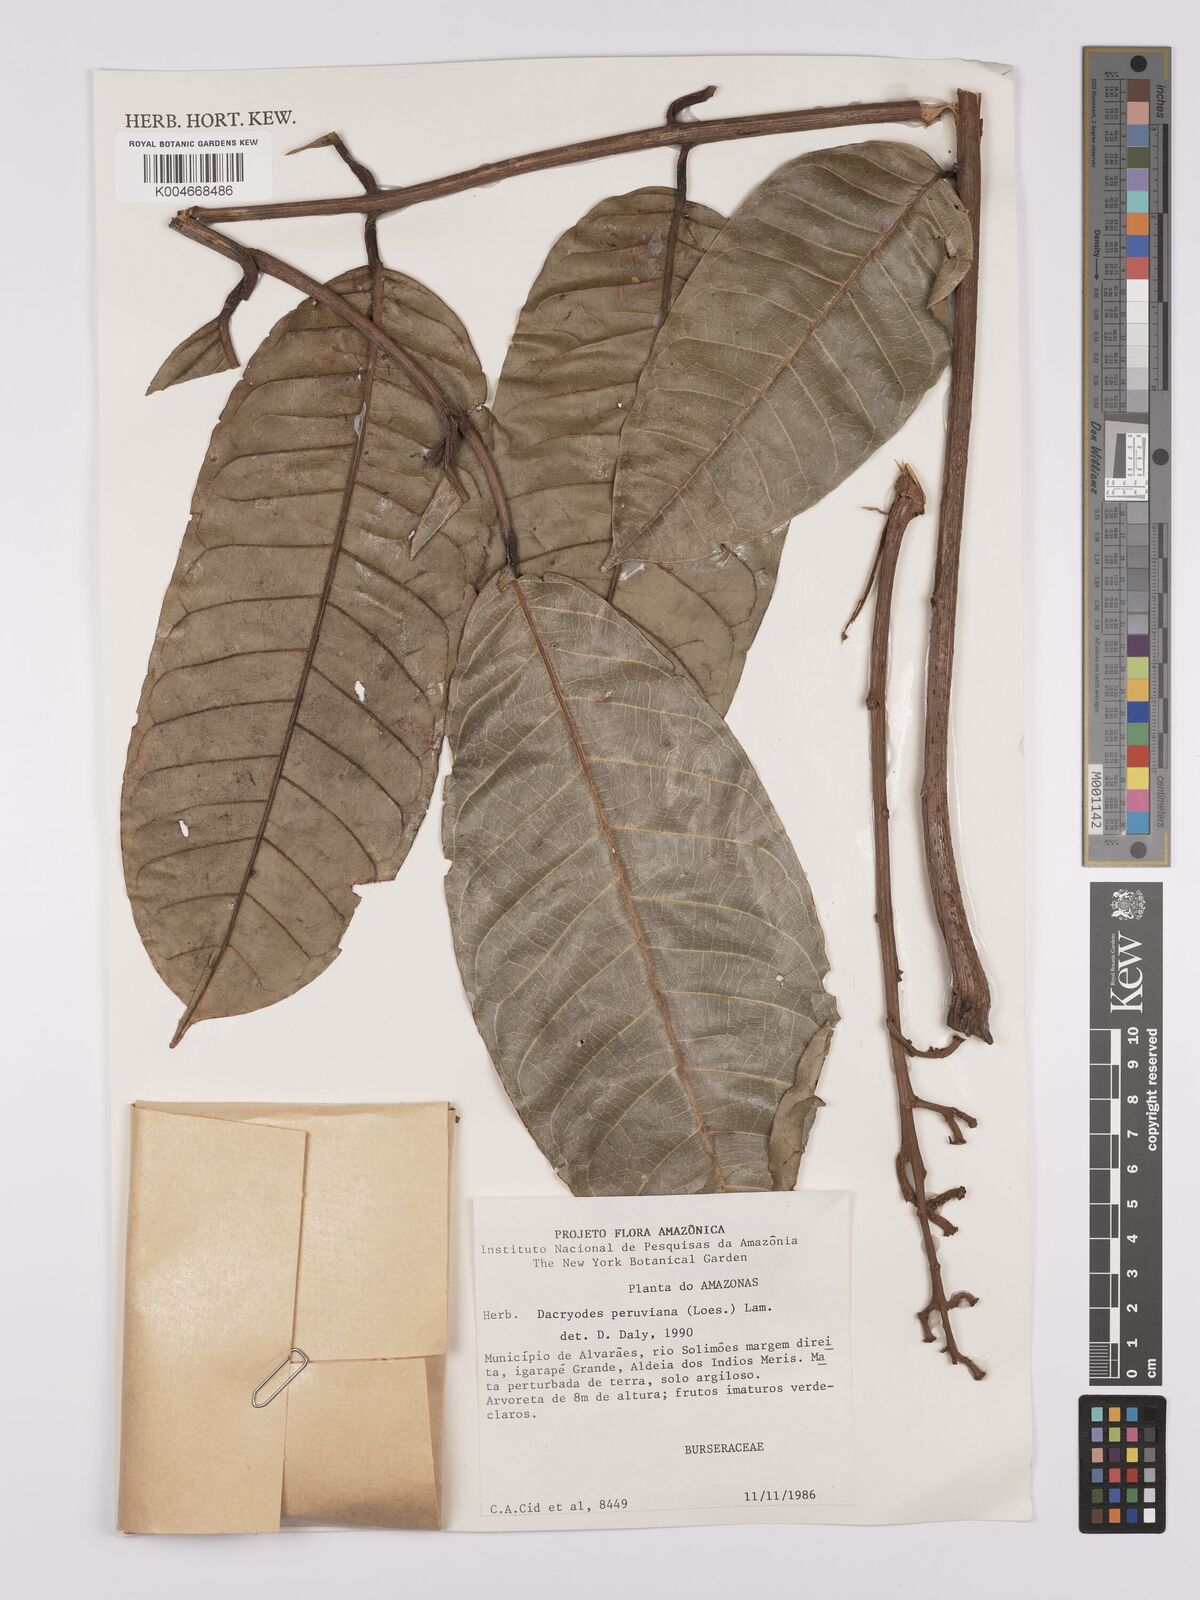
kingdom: Plantae
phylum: Tracheophyta
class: Magnoliopsida
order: Sapindales
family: Burseraceae
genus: Dacryodes
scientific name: Dacryodes peruviana
